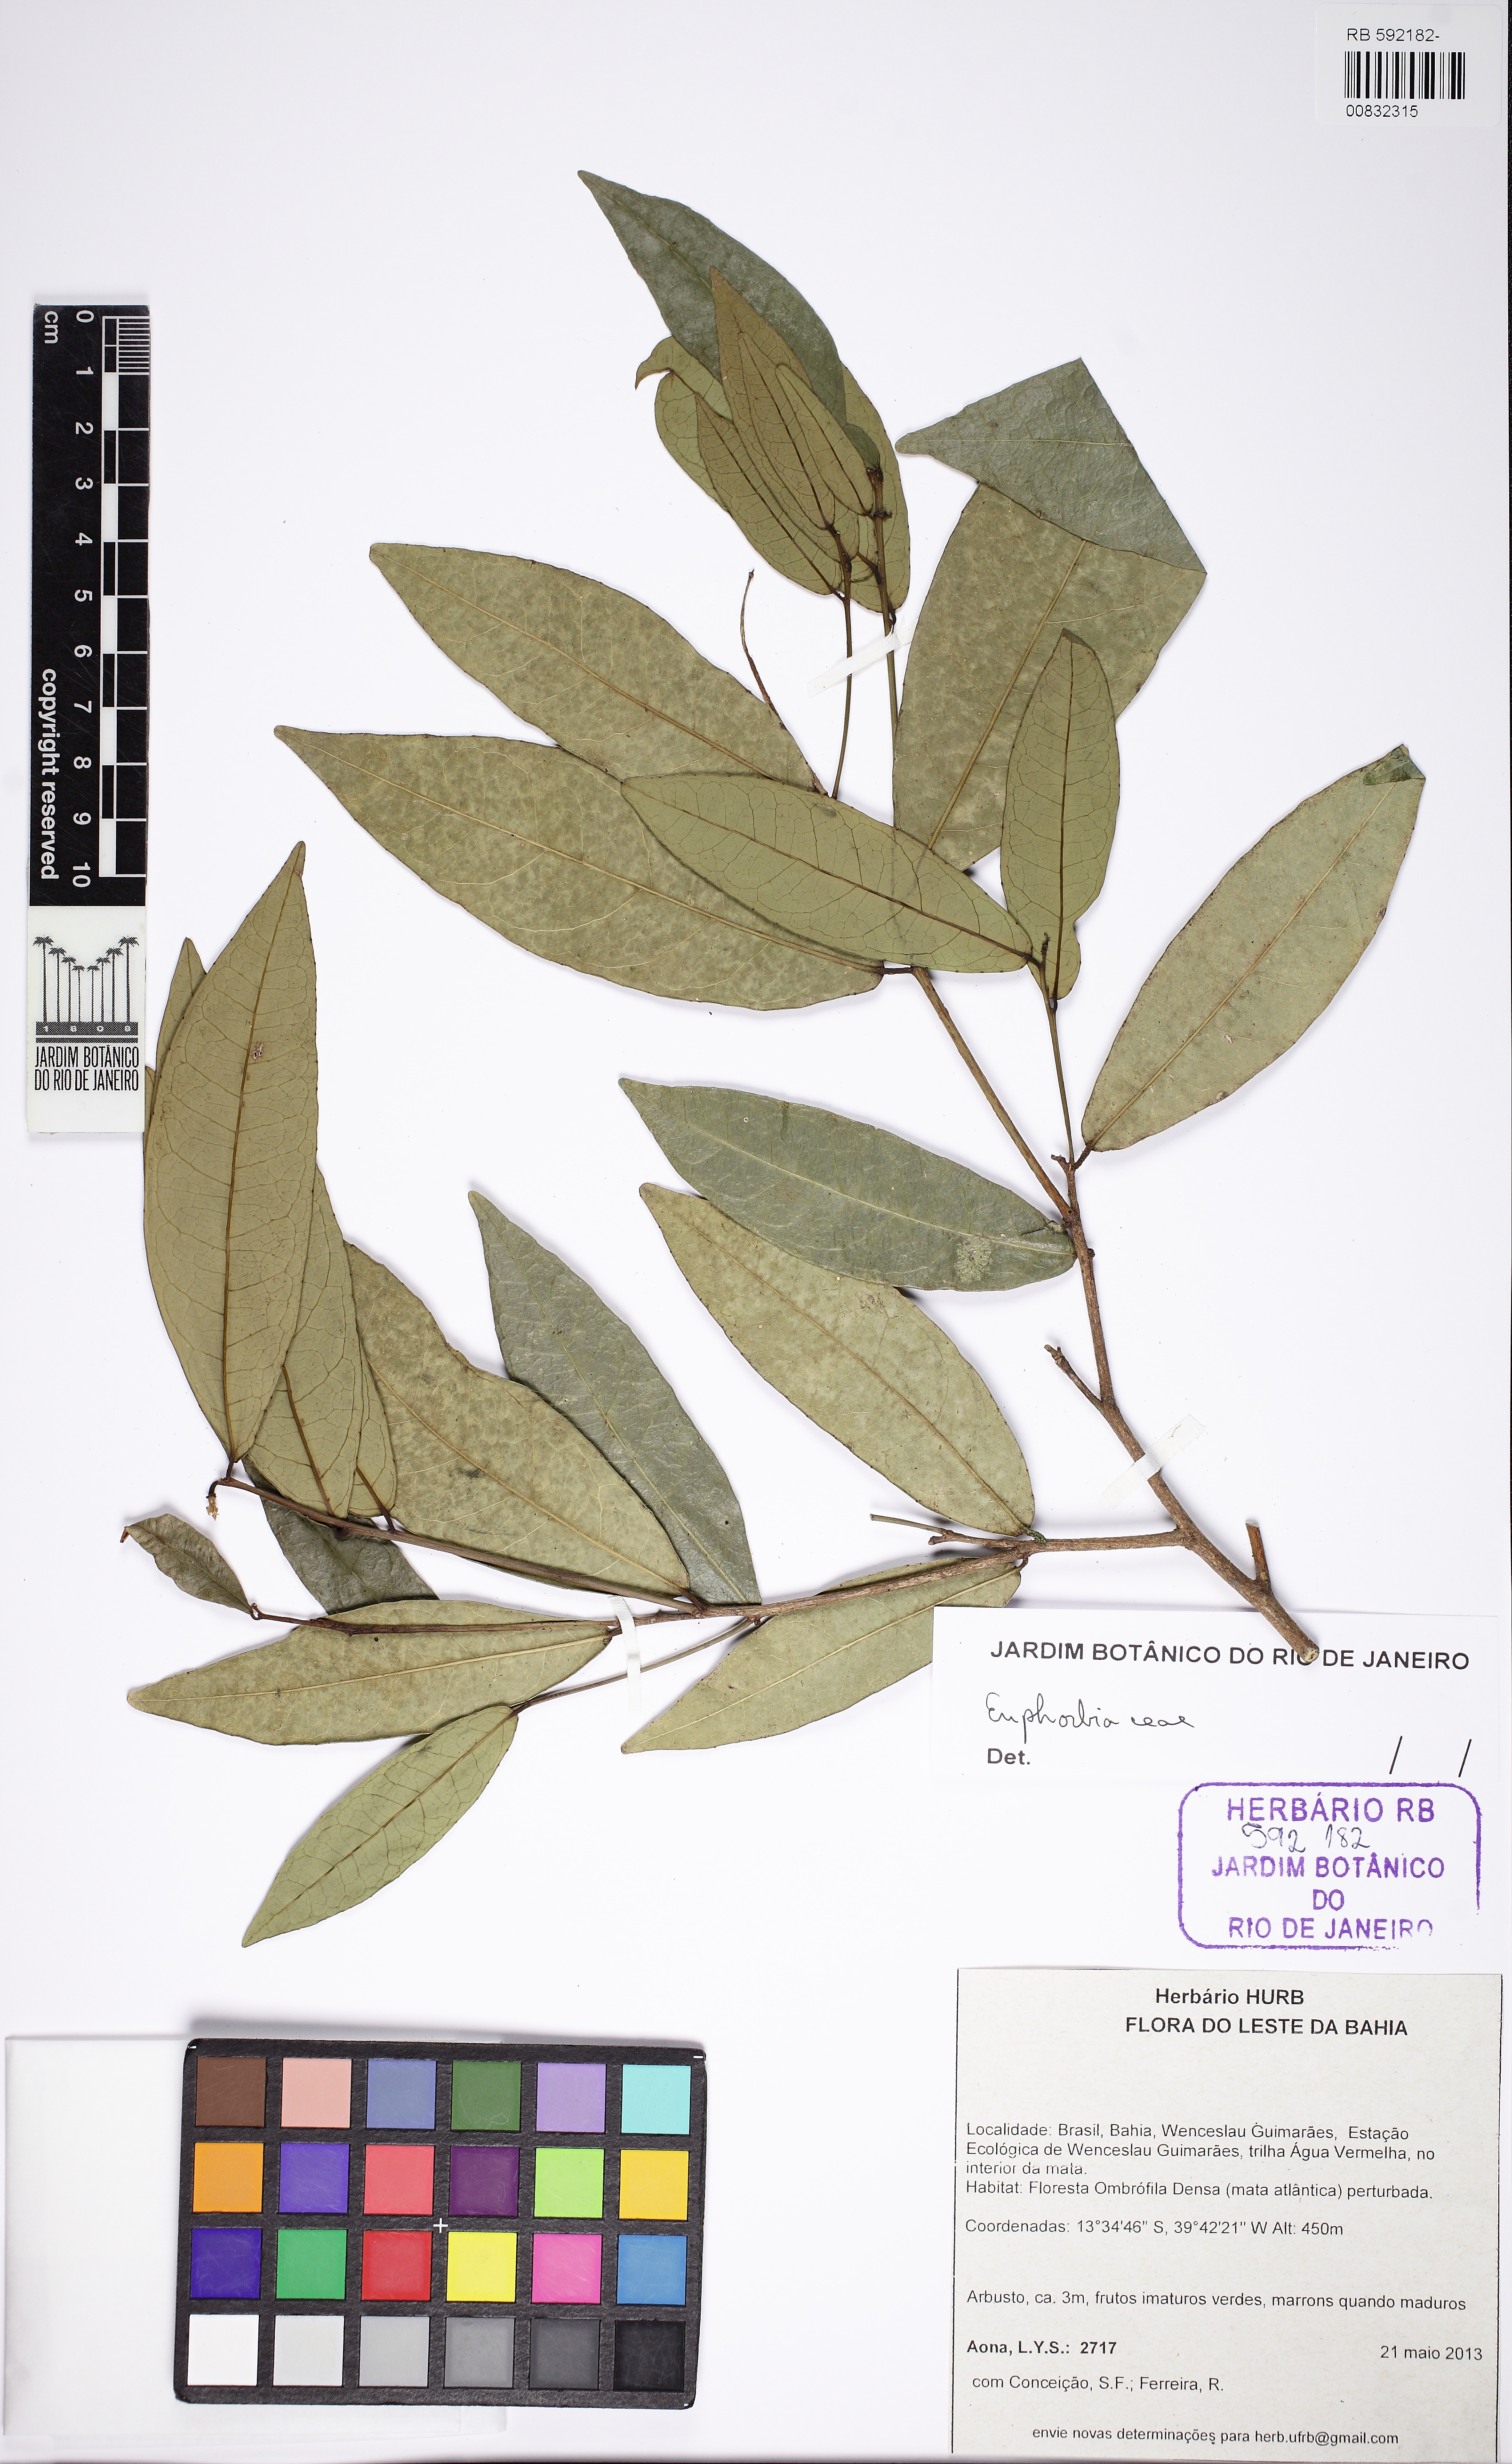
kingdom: Plantae
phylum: Tracheophyta
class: Magnoliopsida
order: Malpighiales
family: Euphorbiaceae
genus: Gymnanthes
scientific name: Gymnanthes
